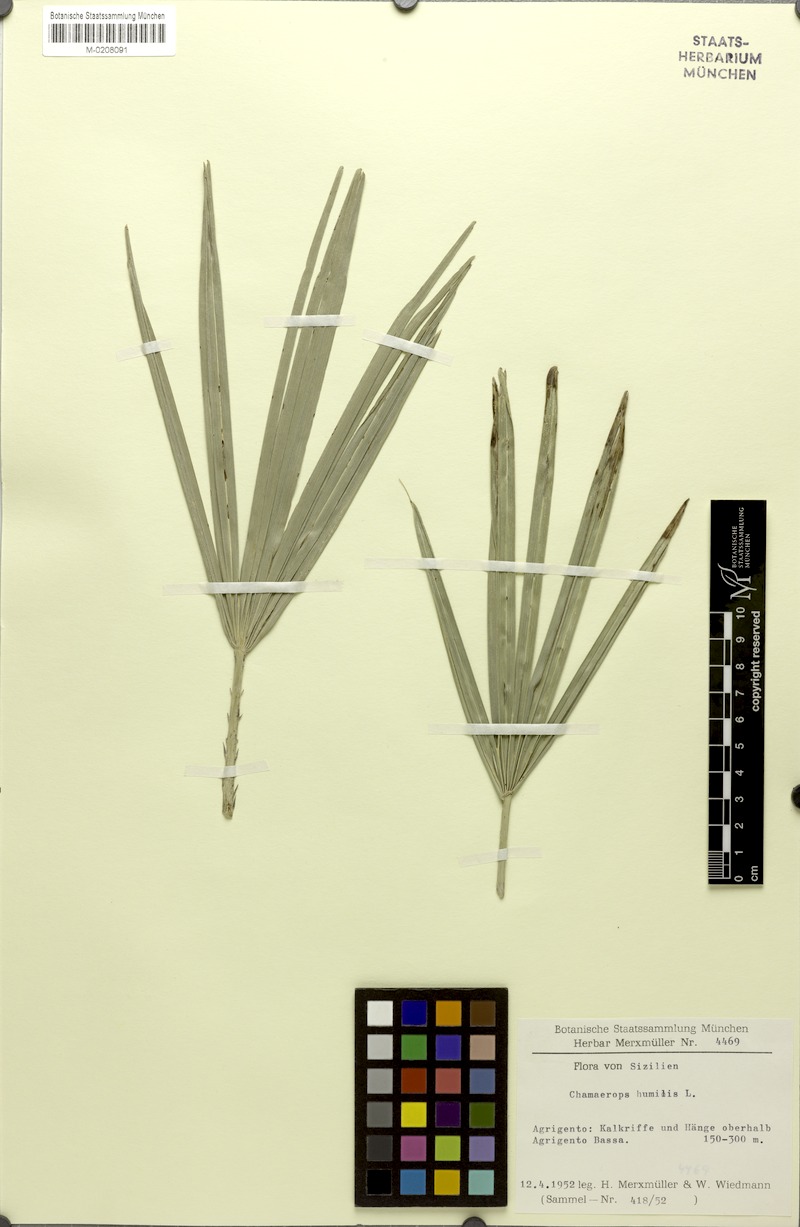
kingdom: Plantae
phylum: Tracheophyta
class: Liliopsida
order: Arecales
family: Arecaceae
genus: Chamaerops
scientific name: Chamaerops humilis
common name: Dwarf fan palm
